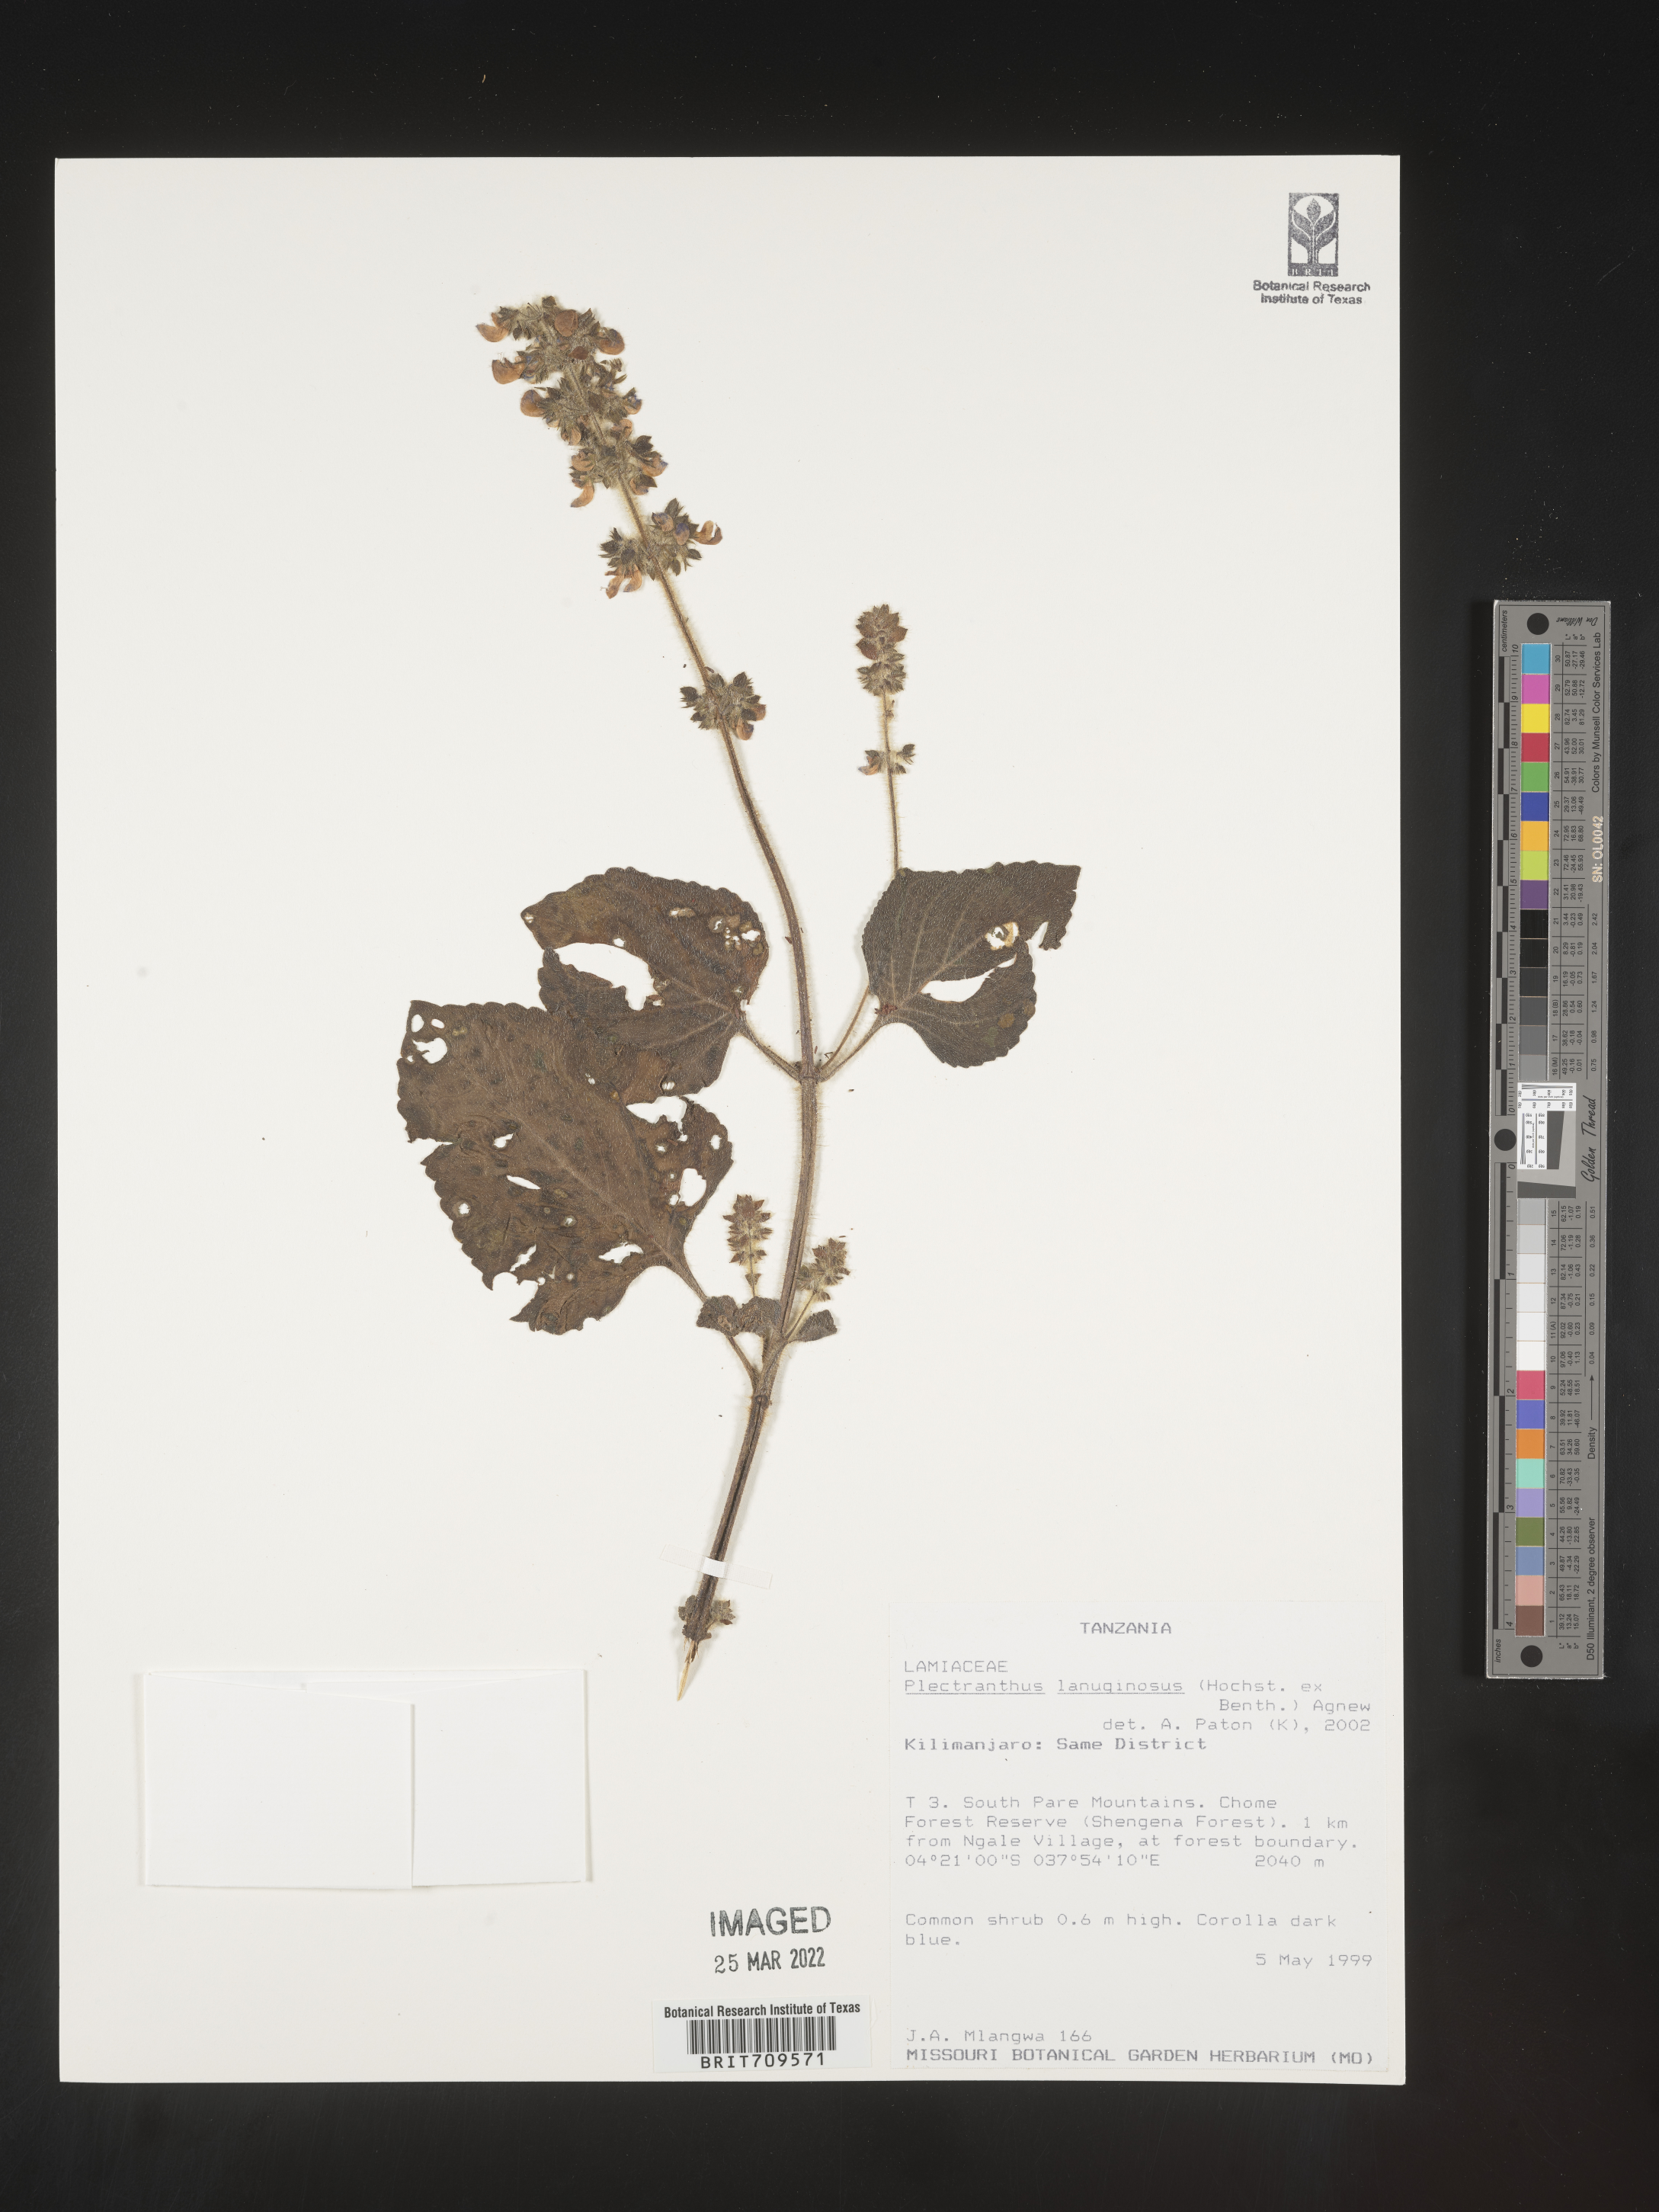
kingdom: Plantae
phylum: Tracheophyta
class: Magnoliopsida
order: Lamiales
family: Lamiaceae
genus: Plectranthus
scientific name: Plectranthus
